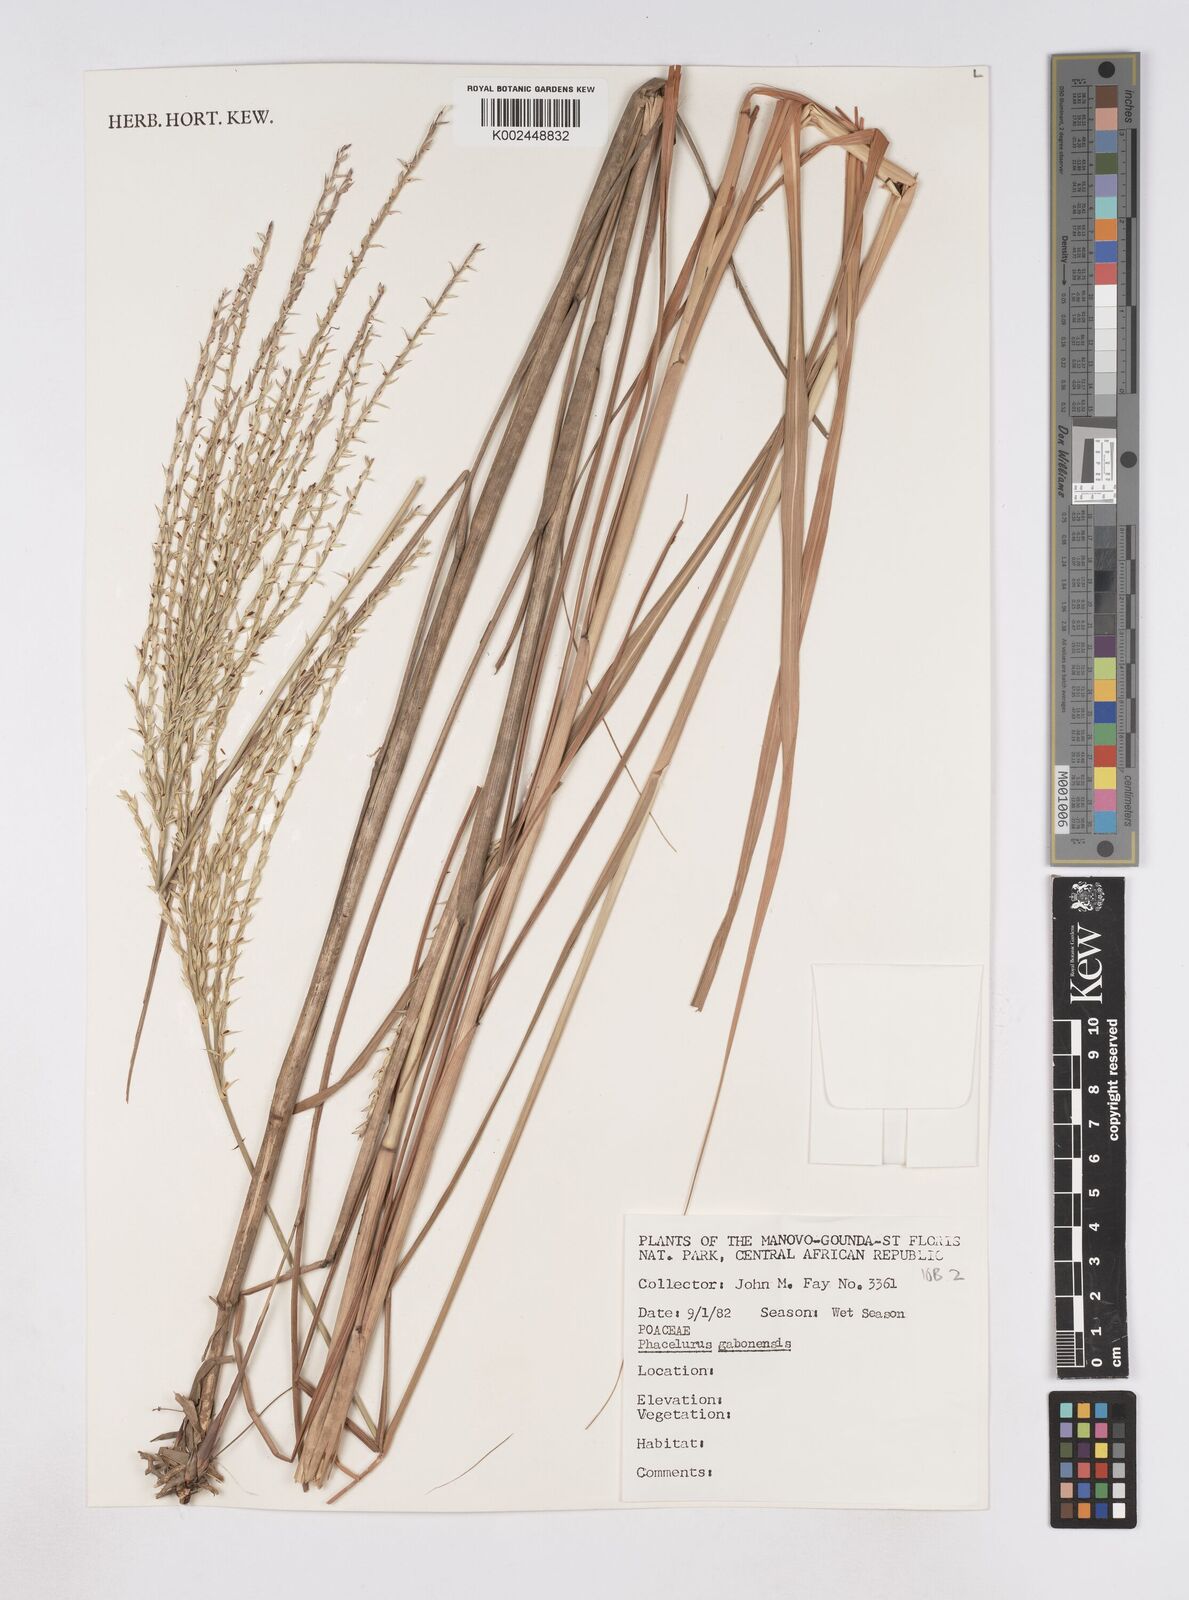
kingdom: Plantae
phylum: Tracheophyta
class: Liliopsida
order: Poales
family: Poaceae
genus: Phacelurus
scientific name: Phacelurus gabonensis
